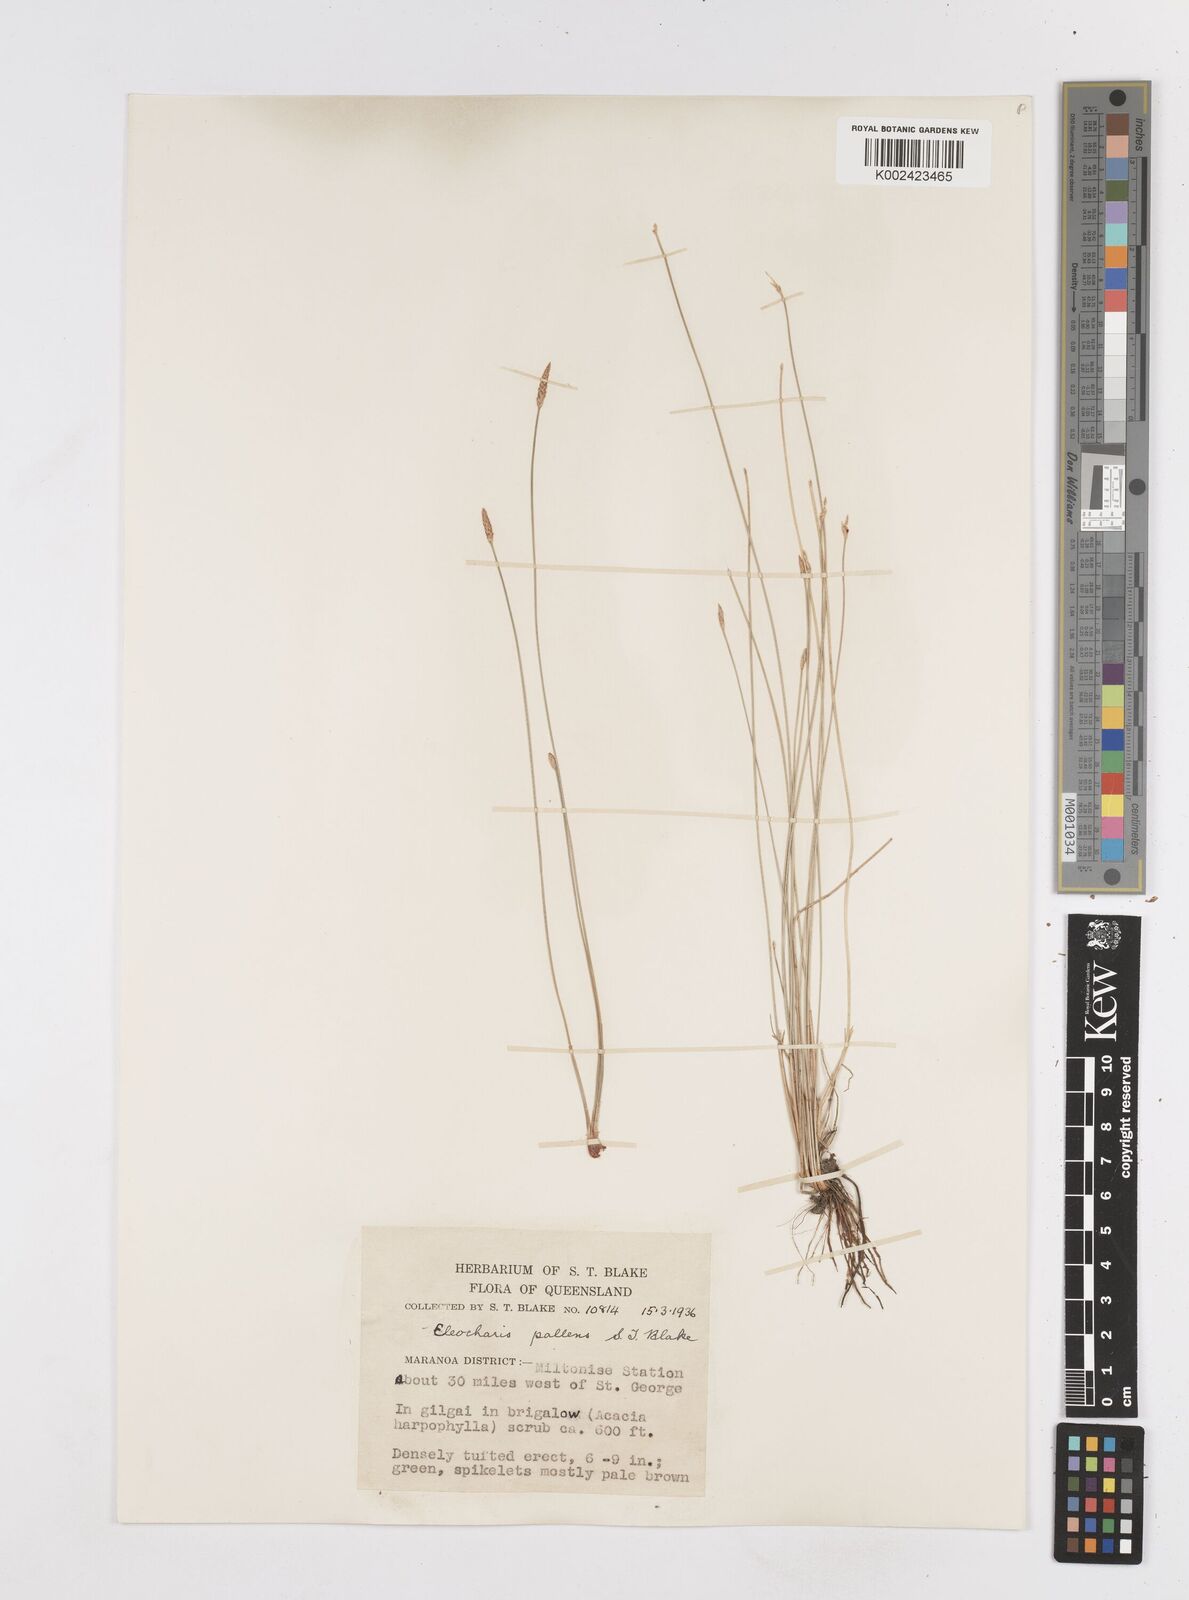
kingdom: Plantae
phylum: Tracheophyta
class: Liliopsida
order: Poales
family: Cyperaceae
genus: Eleocharis
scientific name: Eleocharis acuta
